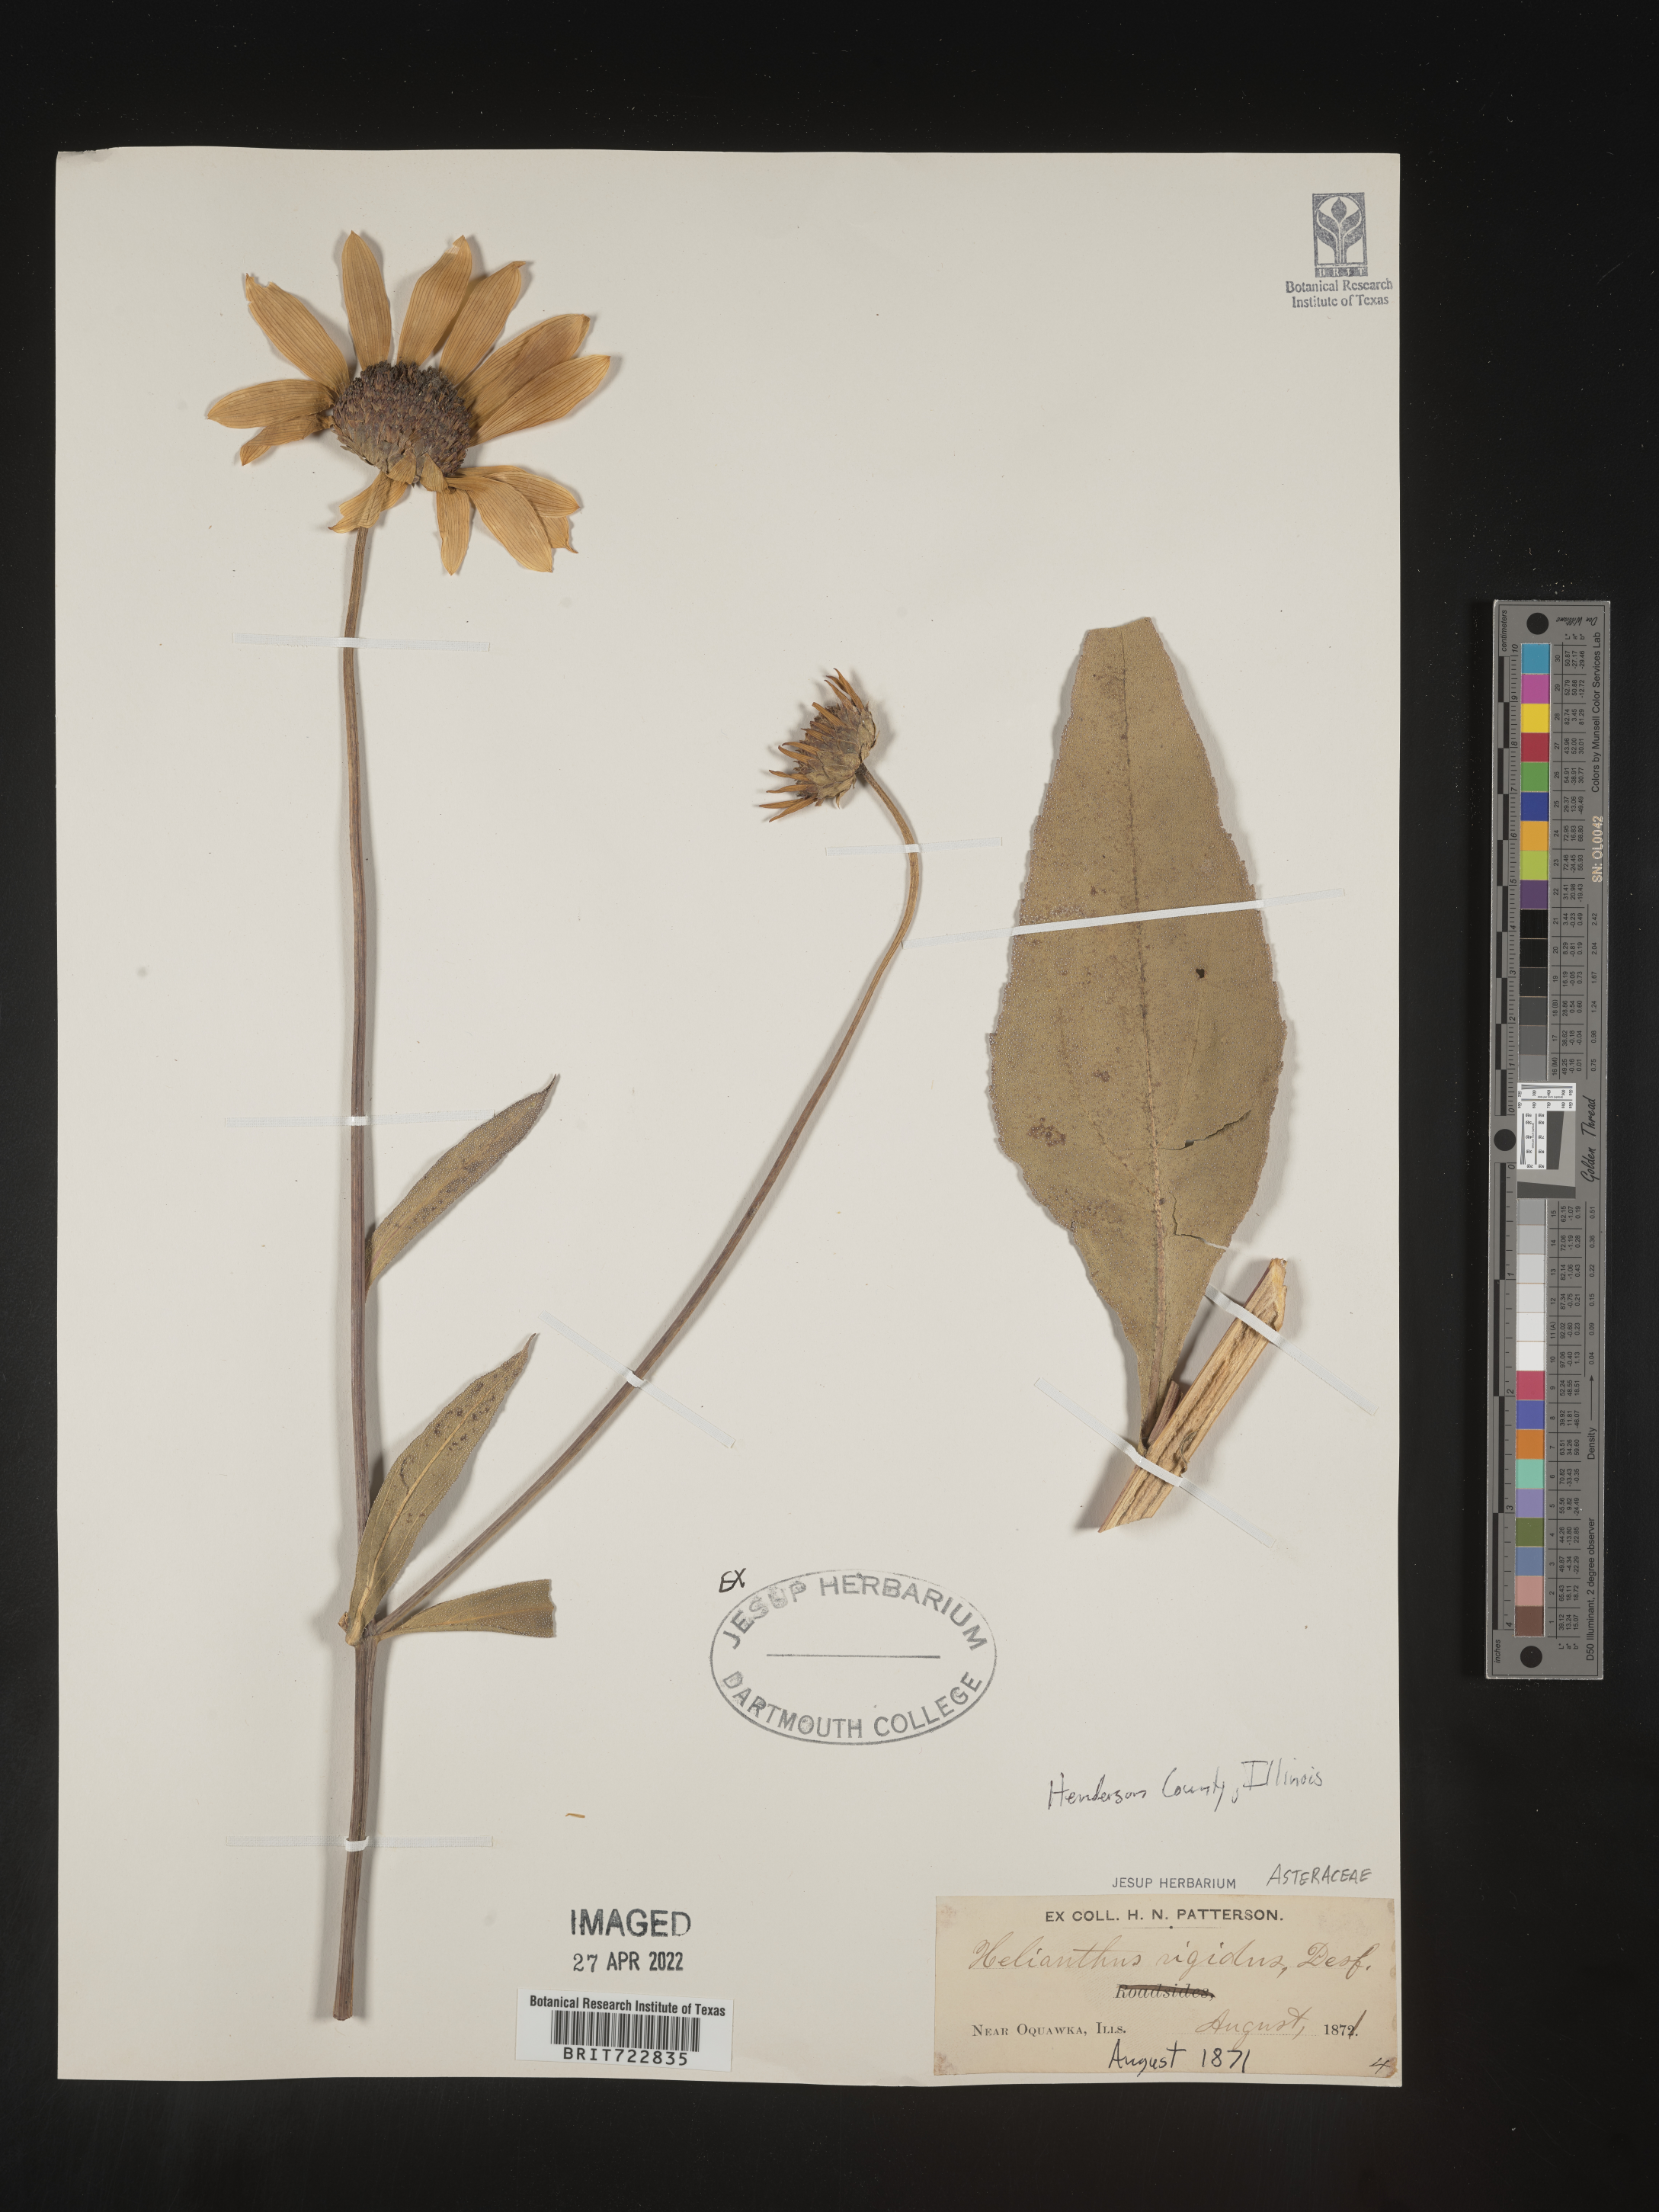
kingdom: Plantae
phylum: Tracheophyta
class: Magnoliopsida
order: Asterales
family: Asteraceae
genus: Helianthus
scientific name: Helianthus pauciflorus
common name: Stiff sunflower
